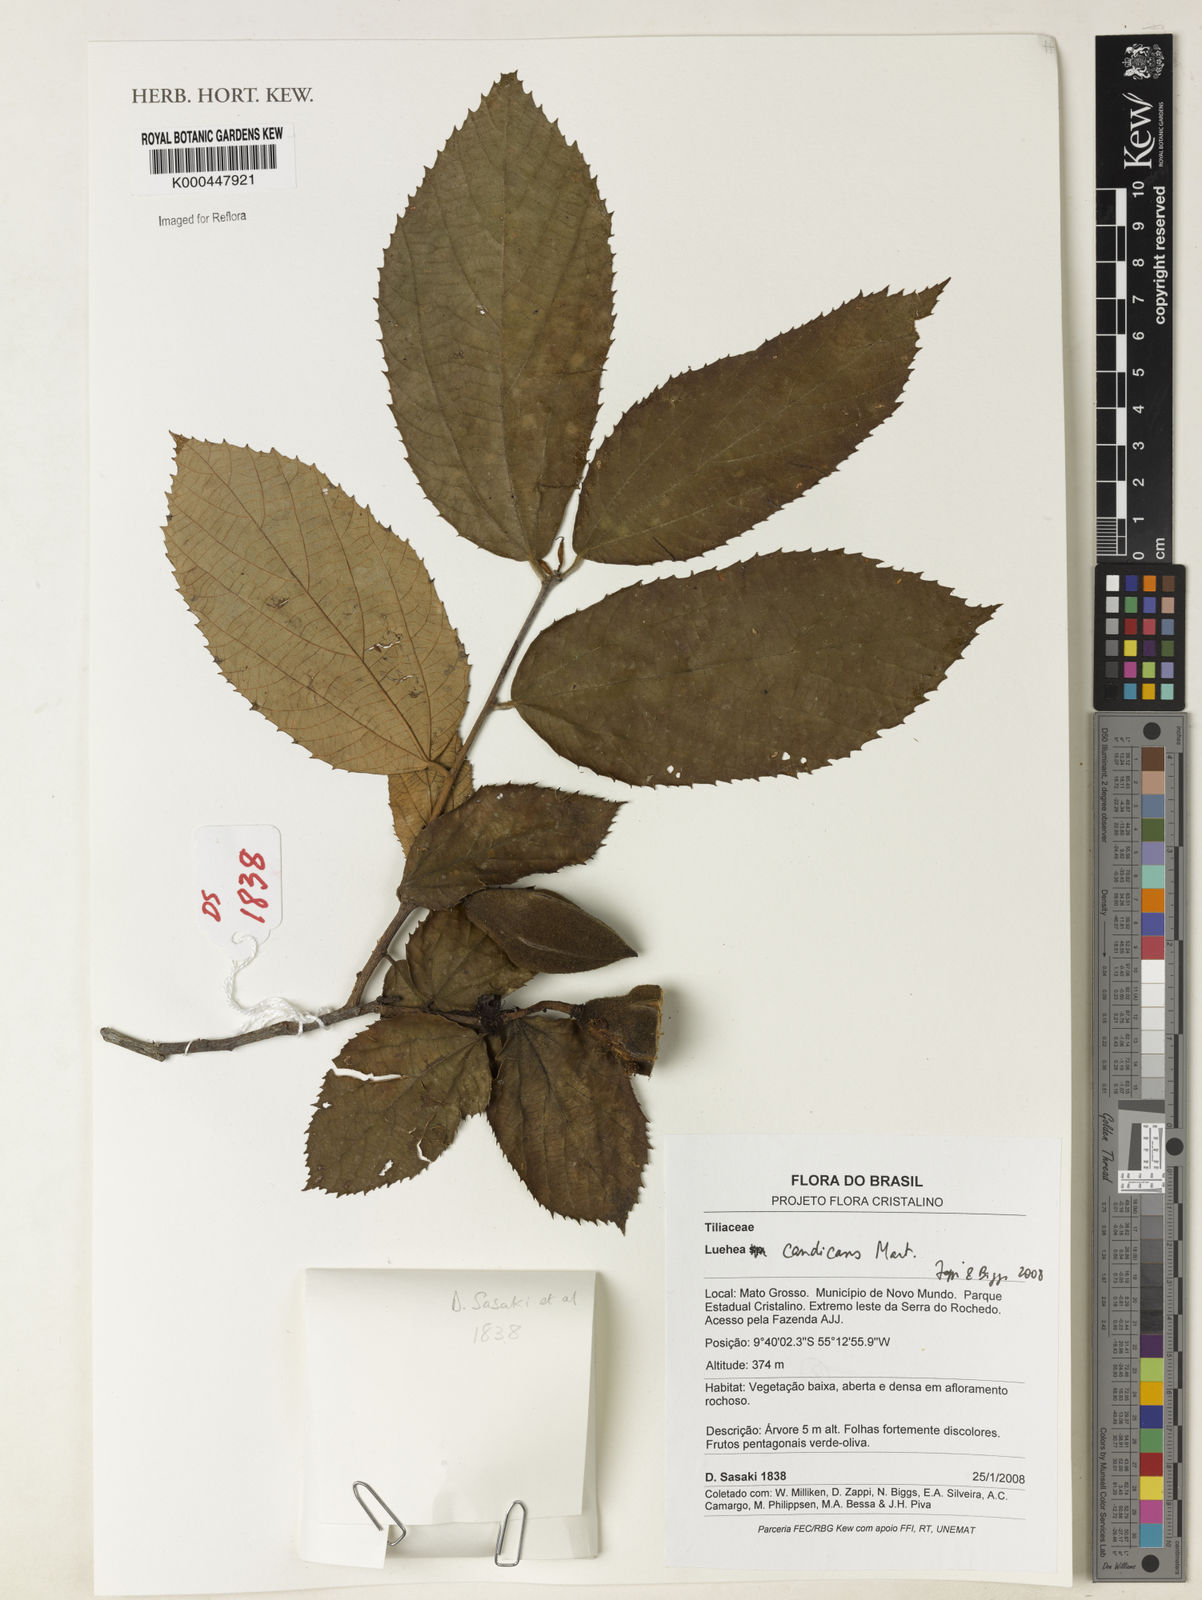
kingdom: Plantae
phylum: Tracheophyta
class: Magnoliopsida
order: Malvales
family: Malvaceae
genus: Luehea
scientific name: Luehea candicans
